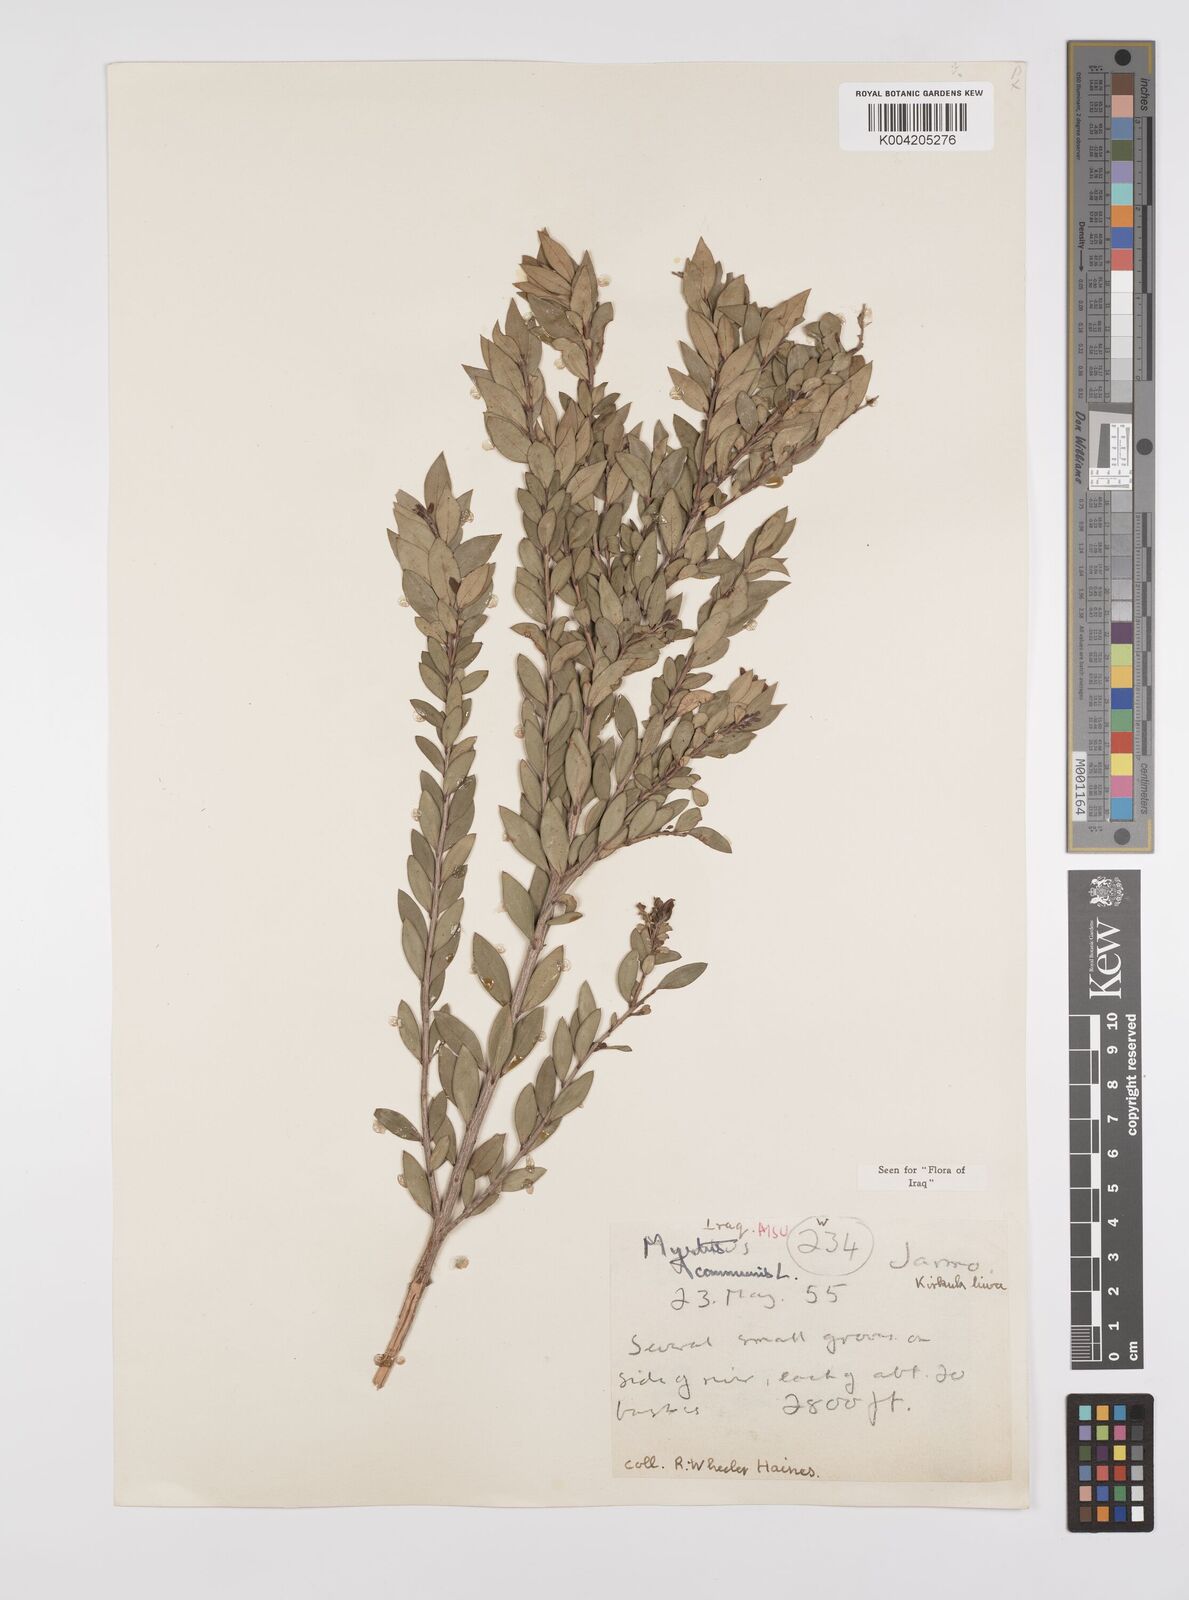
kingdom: Plantae
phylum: Tracheophyta
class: Magnoliopsida
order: Myrtales
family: Myrtaceae
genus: Myrtus
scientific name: Myrtus communis
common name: Myrtle
